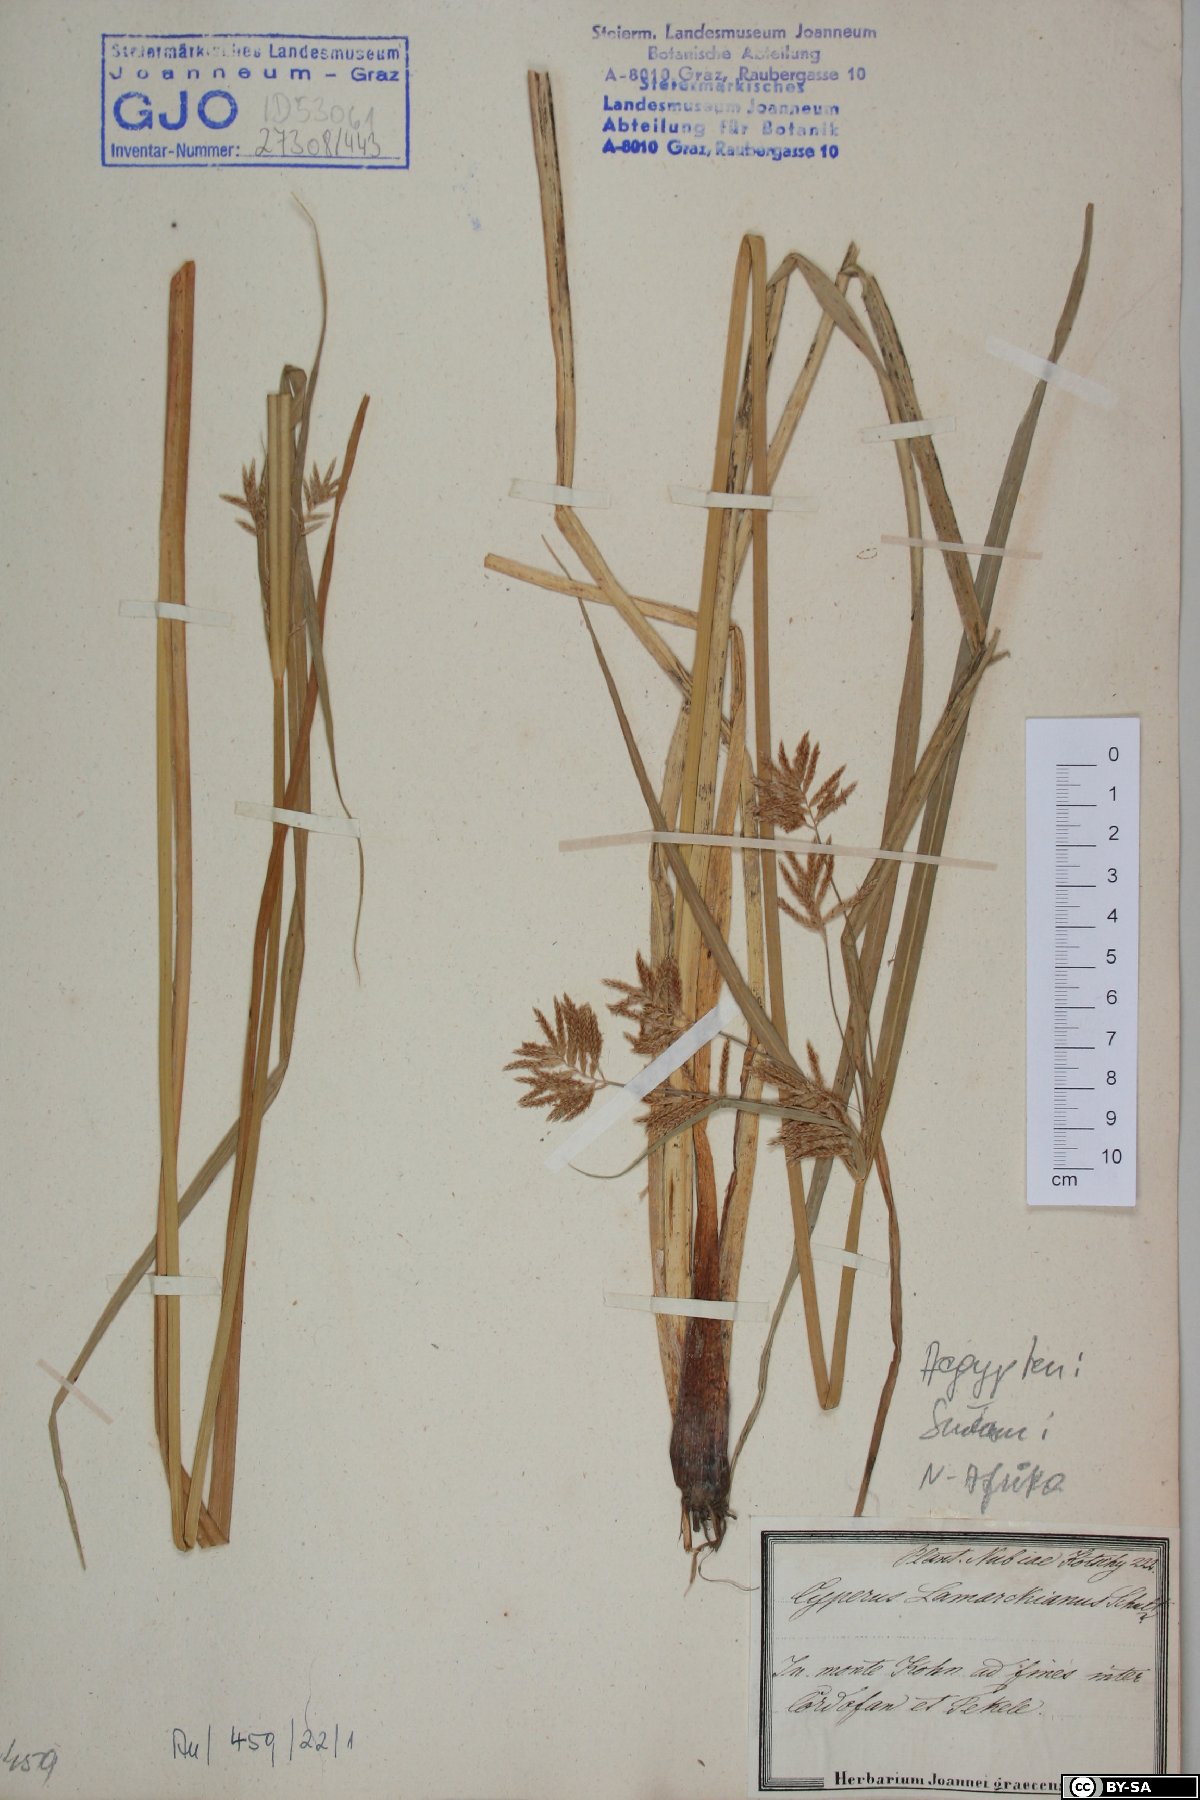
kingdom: Plantae
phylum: Tracheophyta
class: Liliopsida
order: Poales
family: Cyperaceae
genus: Cyperus
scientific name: Cyperus flavidus
